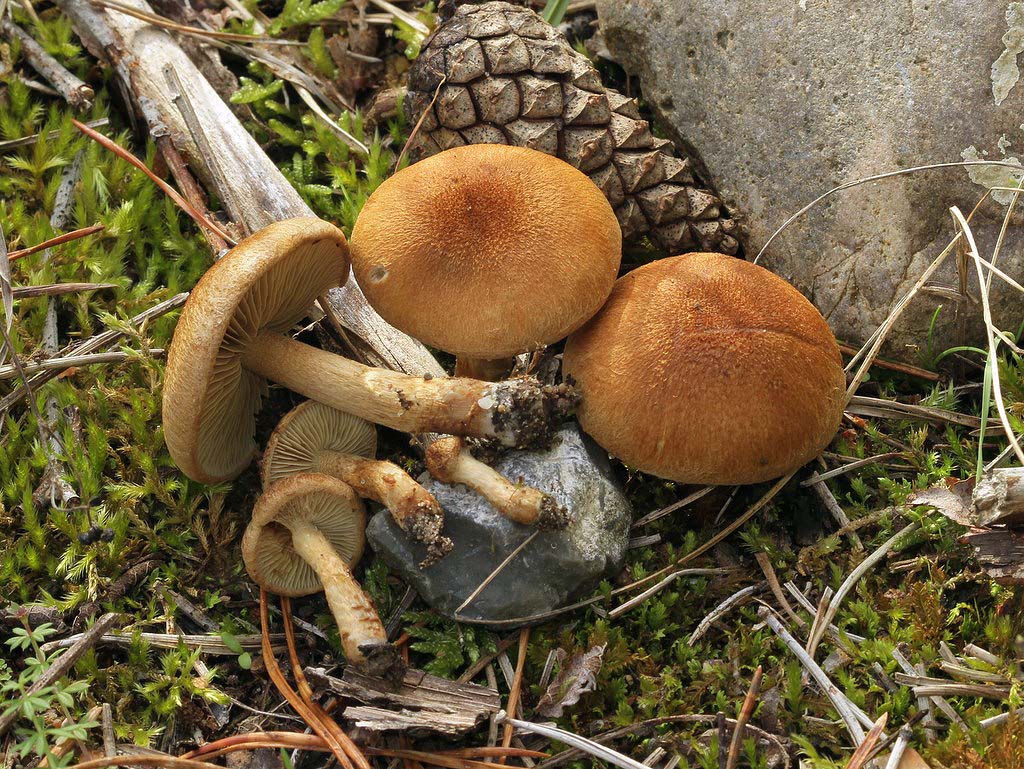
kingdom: Fungi
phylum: Basidiomycota
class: Agaricomycetes
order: Agaricales
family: Inocybaceae
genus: Inocybe
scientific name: Inocybe dulcamara
